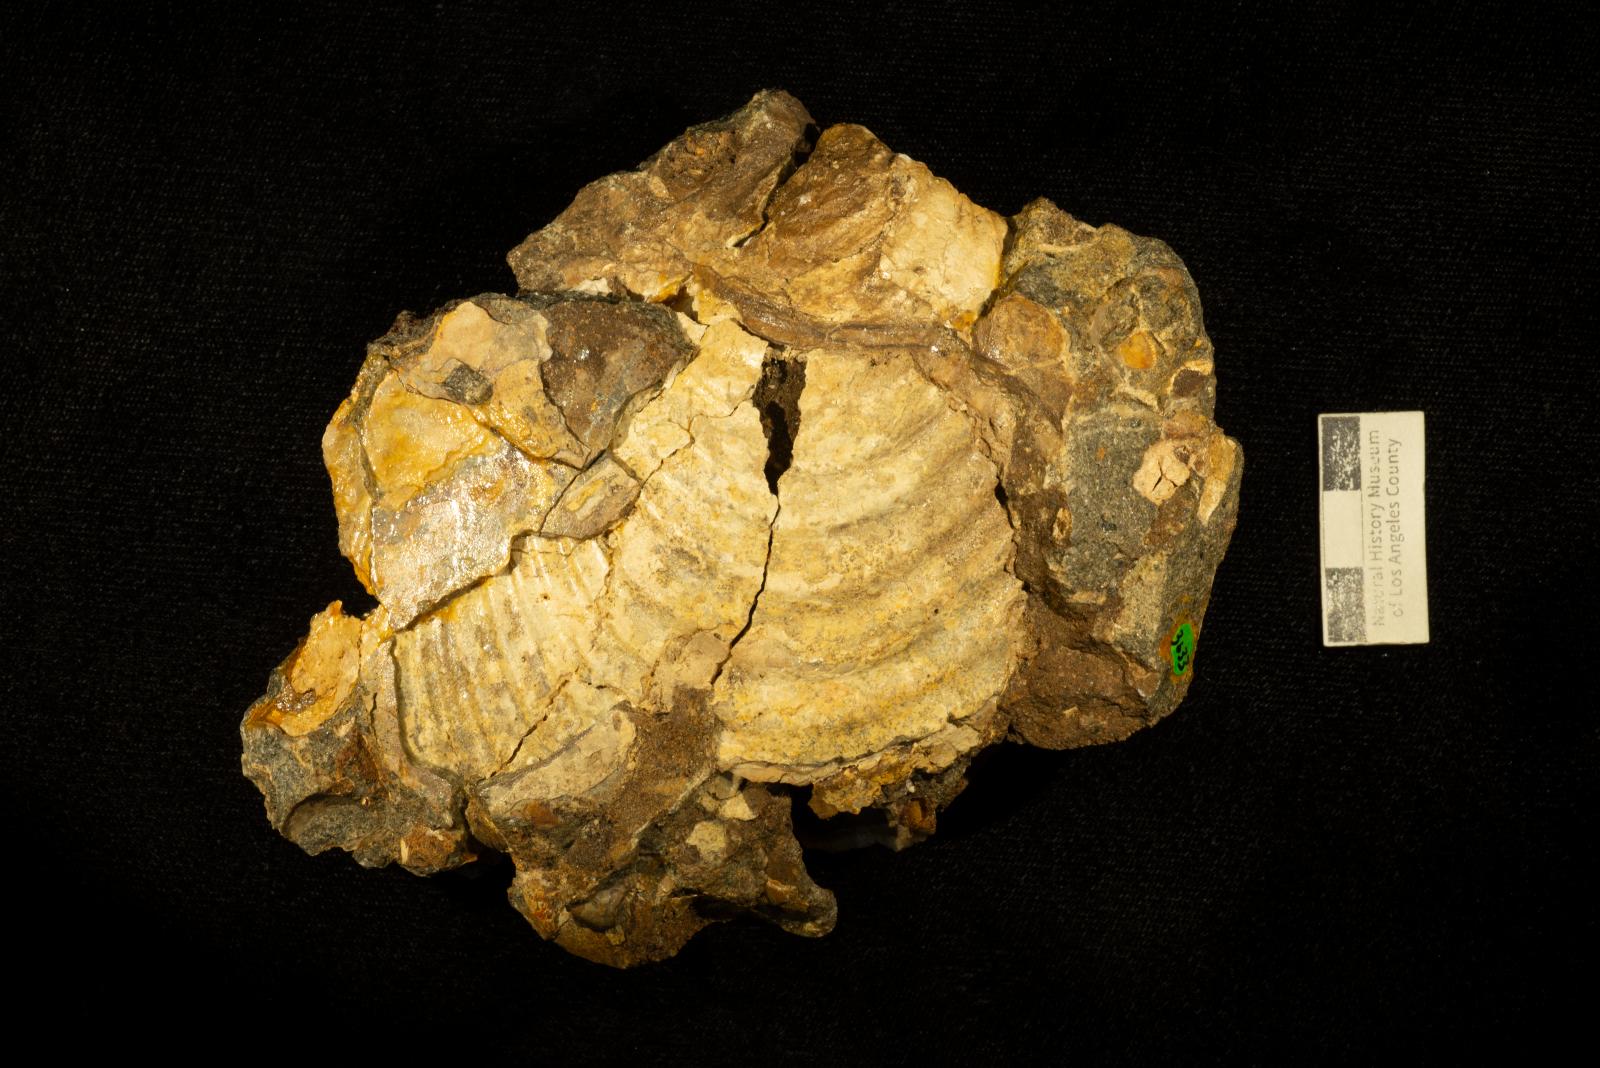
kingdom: Animalia
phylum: Mollusca
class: Bivalvia
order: Myalinida
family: Inoceramidae
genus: Inoceramus
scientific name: Inoceramus
